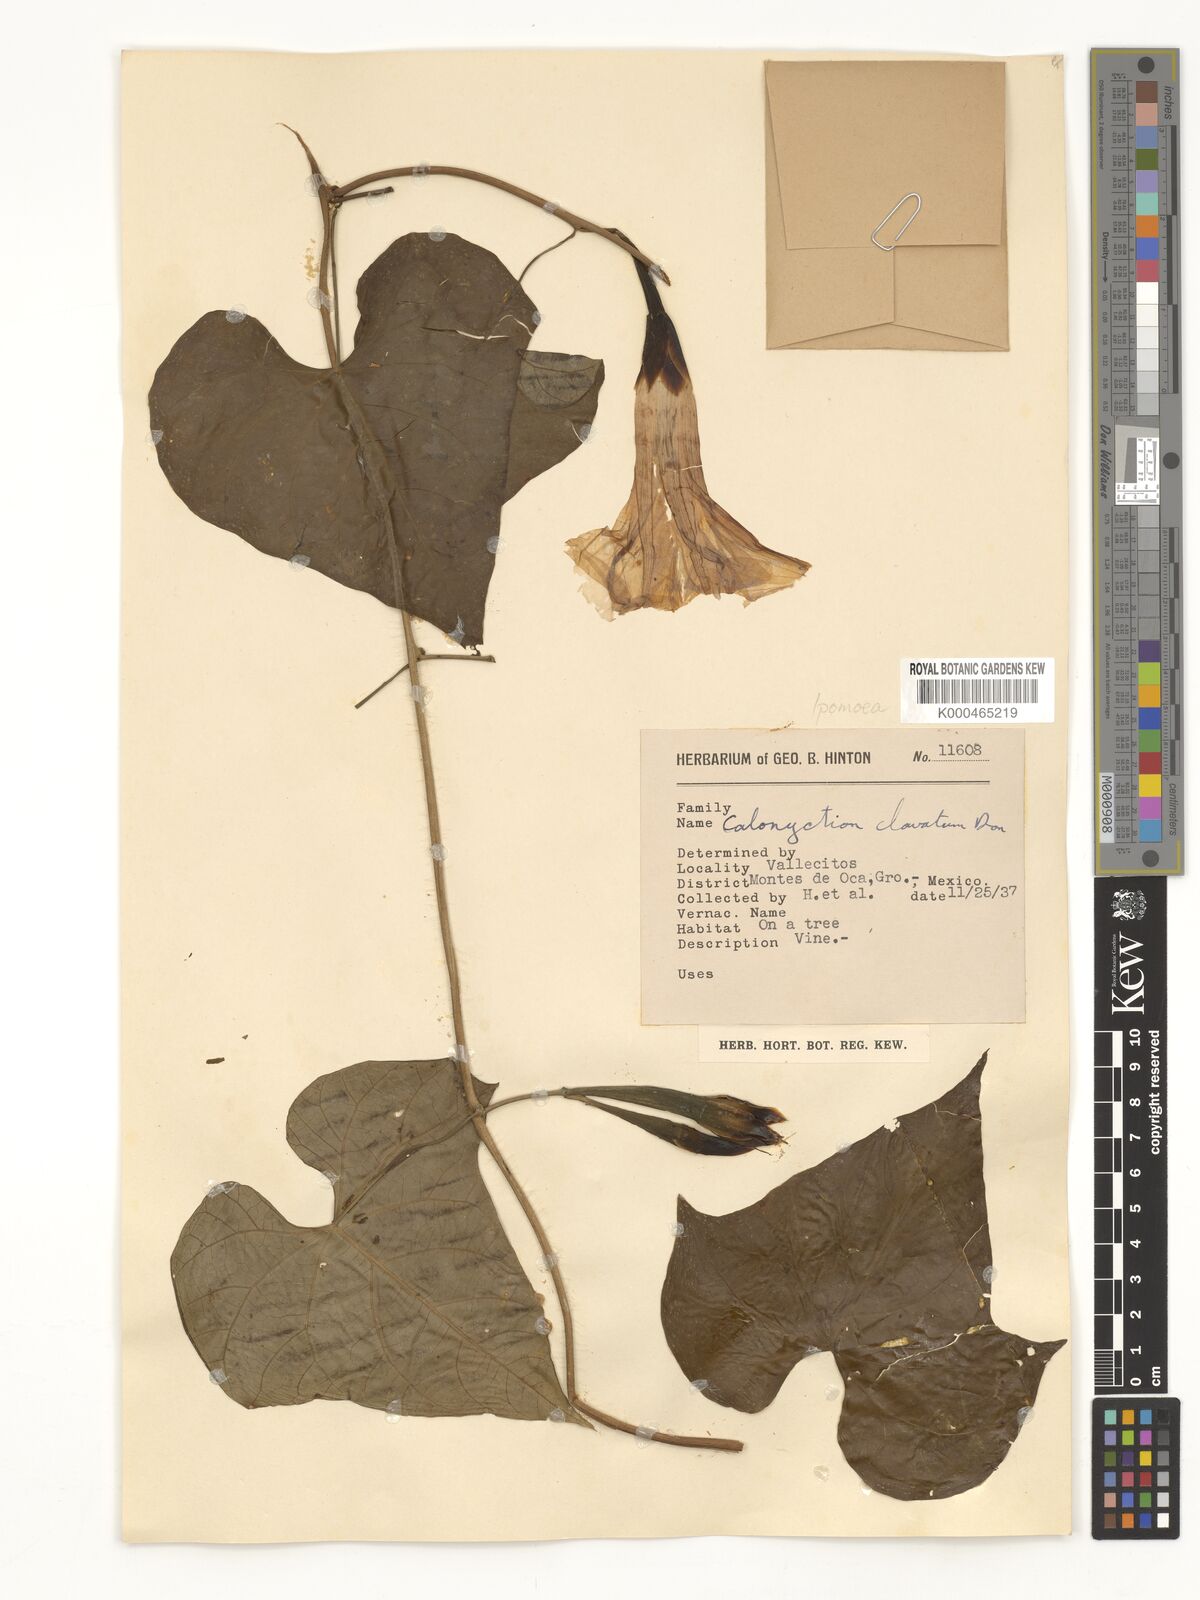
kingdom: Plantae
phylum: Tracheophyta
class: Magnoliopsida
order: Solanales
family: Convolvulaceae
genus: Ipomoea
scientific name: Ipomoea clavata
